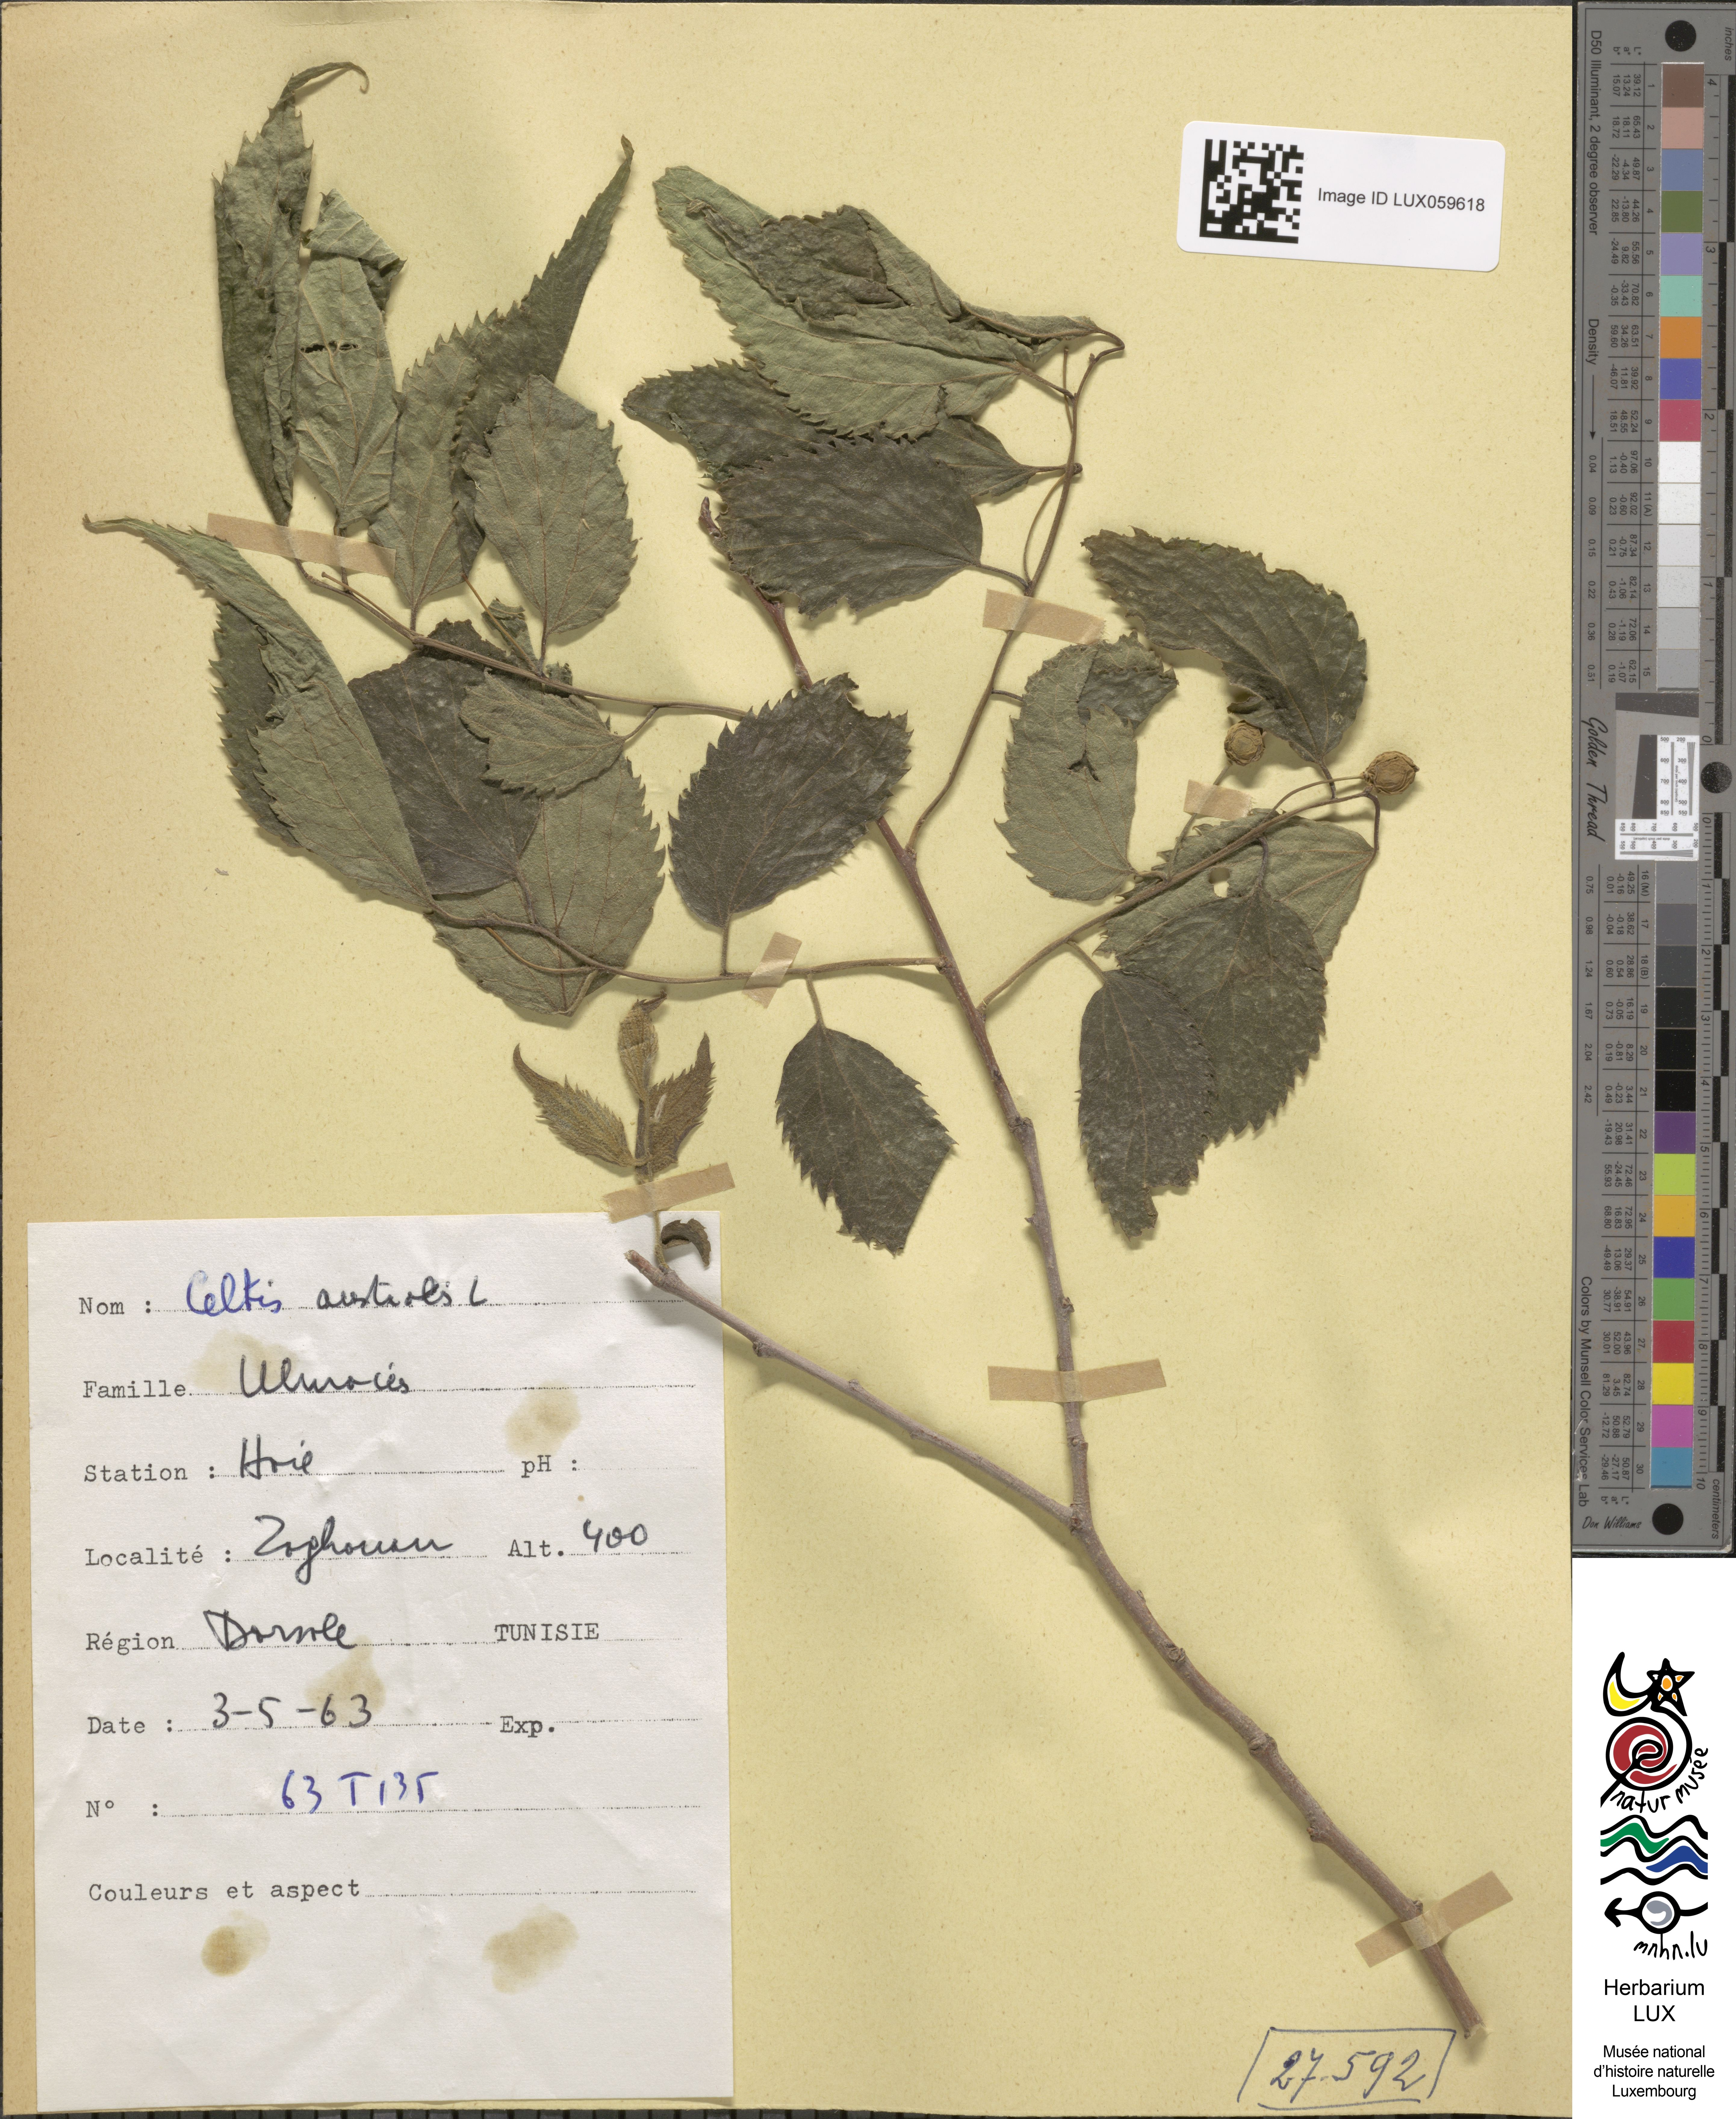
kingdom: Plantae
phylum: Tracheophyta
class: Magnoliopsida
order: Rosales
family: Cannabaceae
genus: Celtis
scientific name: Celtis australis
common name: European hackberry
